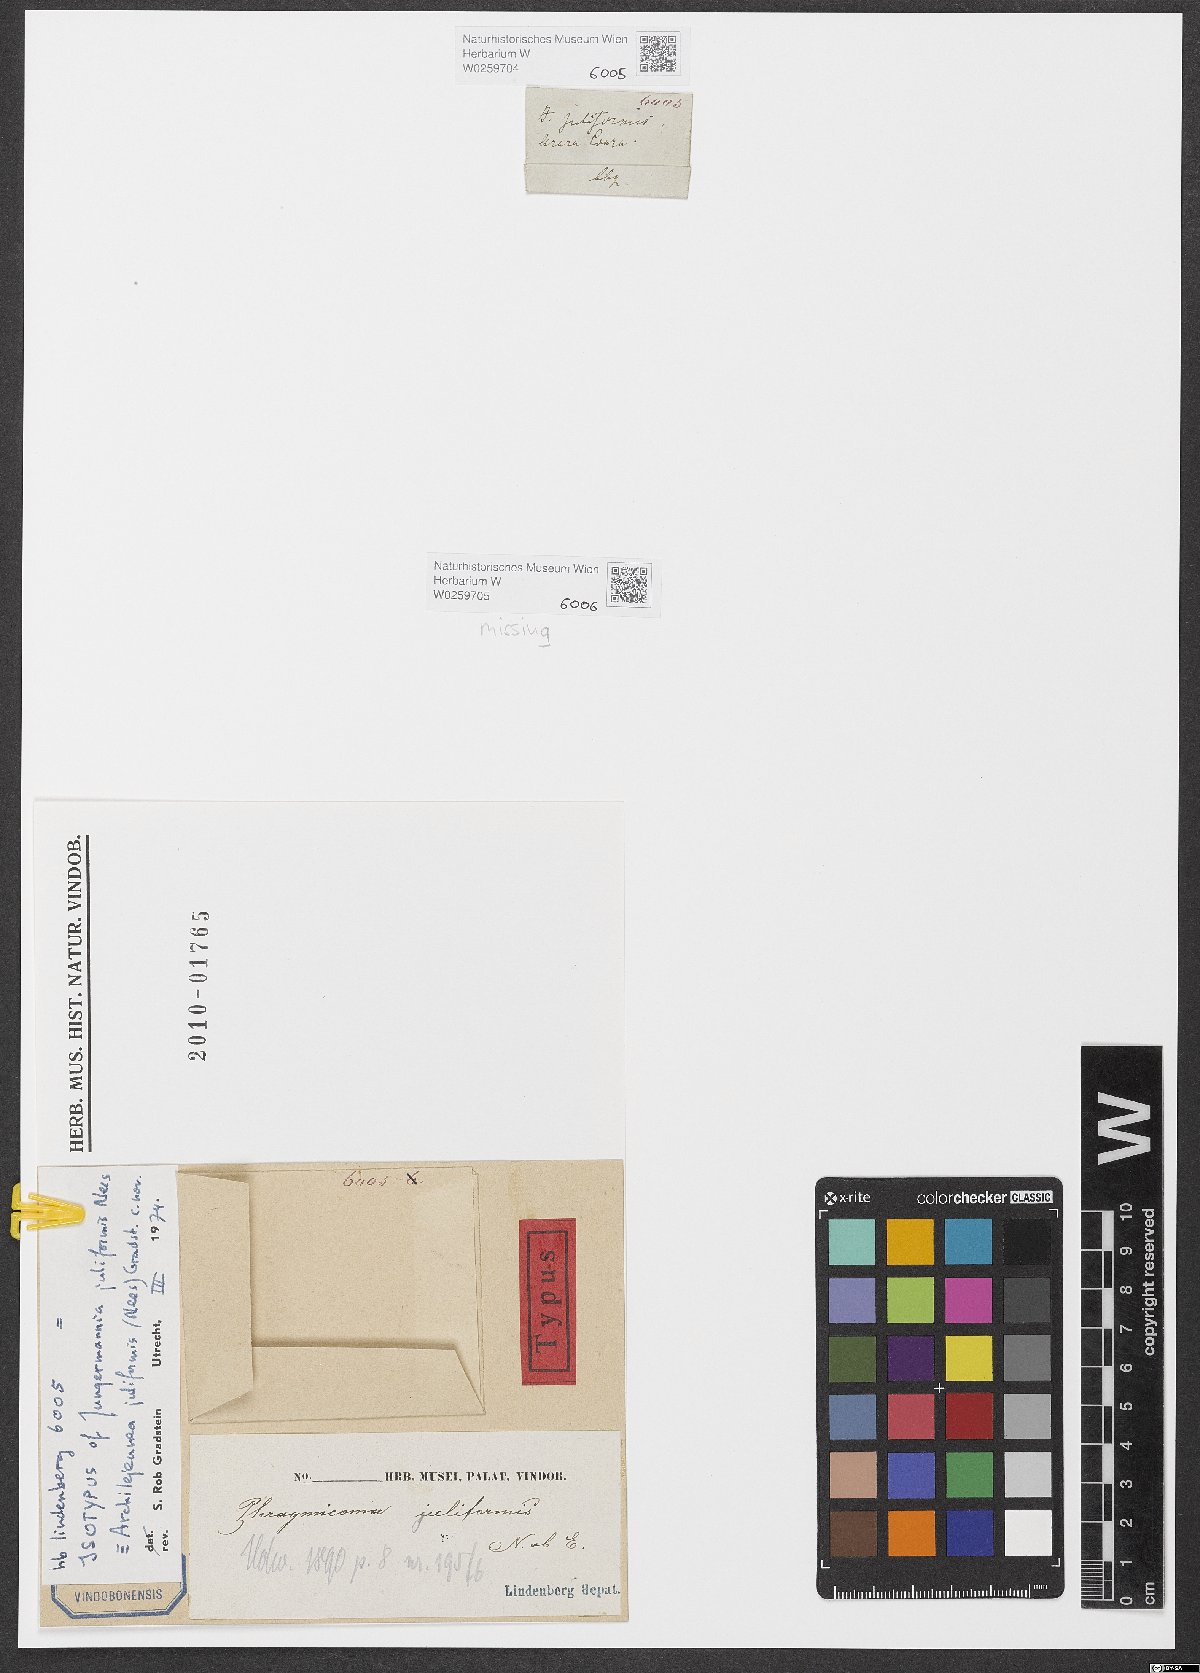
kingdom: Plantae
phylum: Marchantiophyta
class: Jungermanniopsida
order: Porellales
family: Lejeuneaceae
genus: Archilejeunea
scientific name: Archilejeunea juliformis
